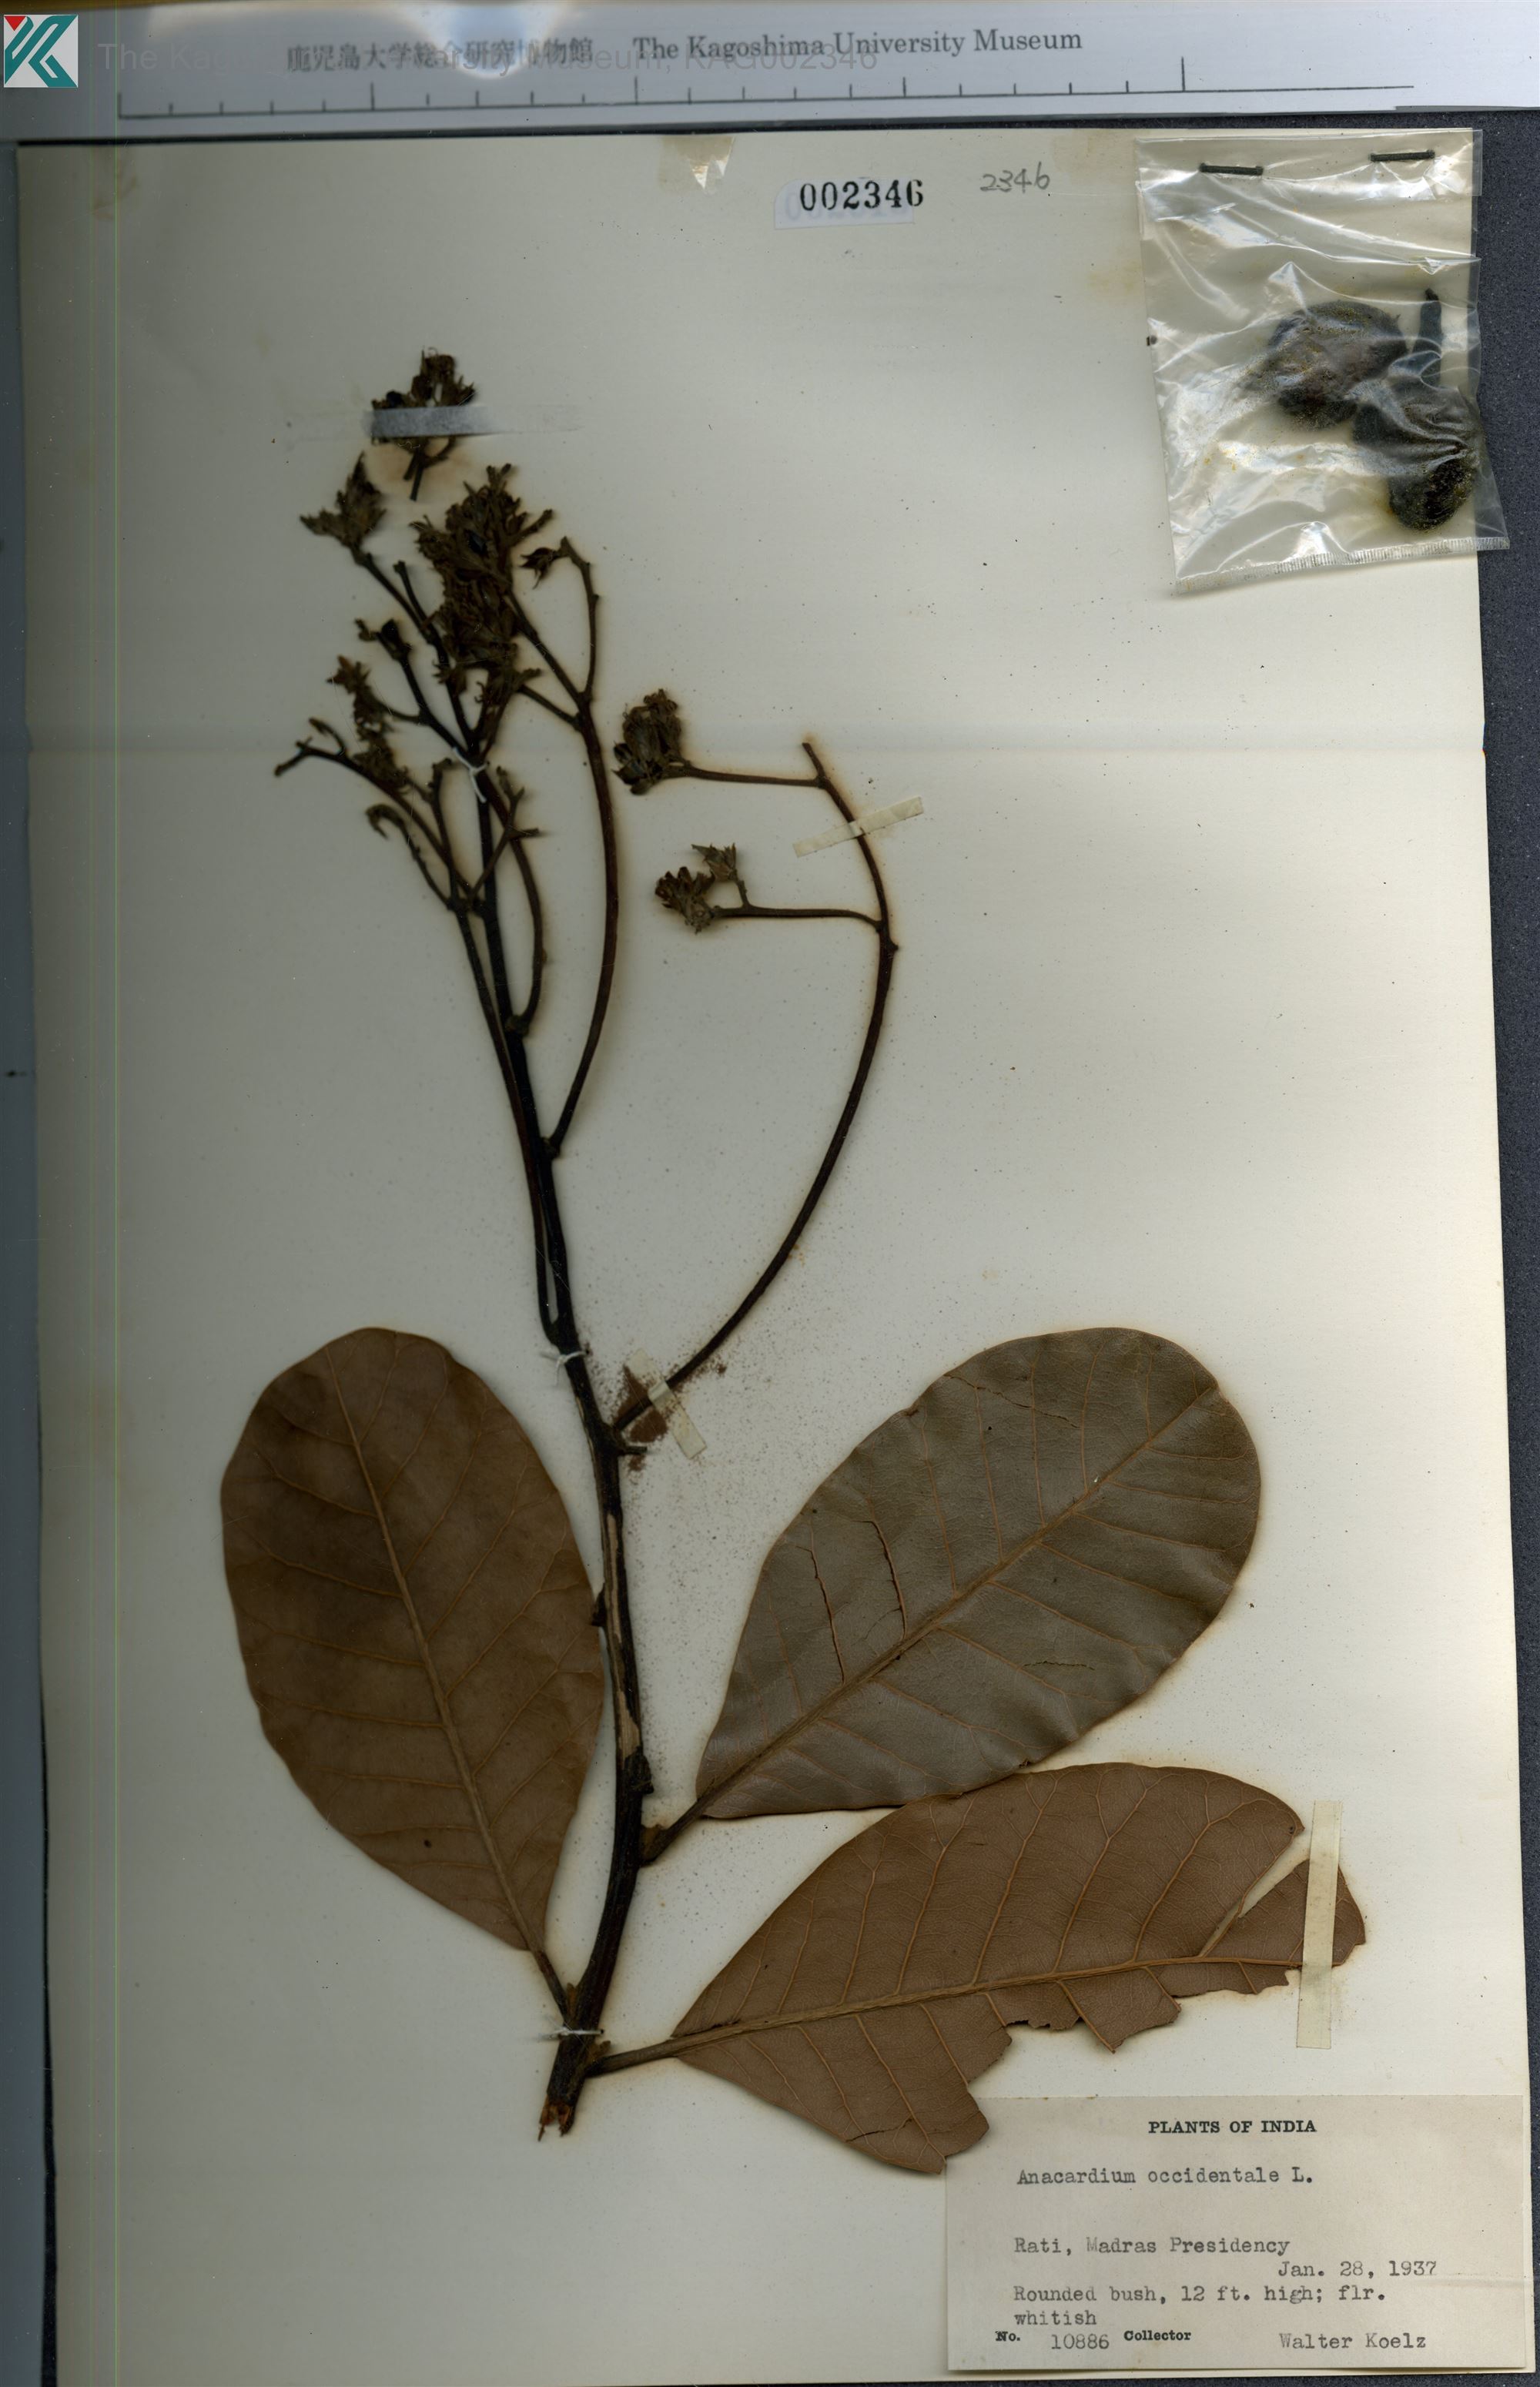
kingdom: Plantae
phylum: Tracheophyta
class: Magnoliopsida
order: Sapindales
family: Anacardiaceae
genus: Anacardium
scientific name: Anacardium occidentale
